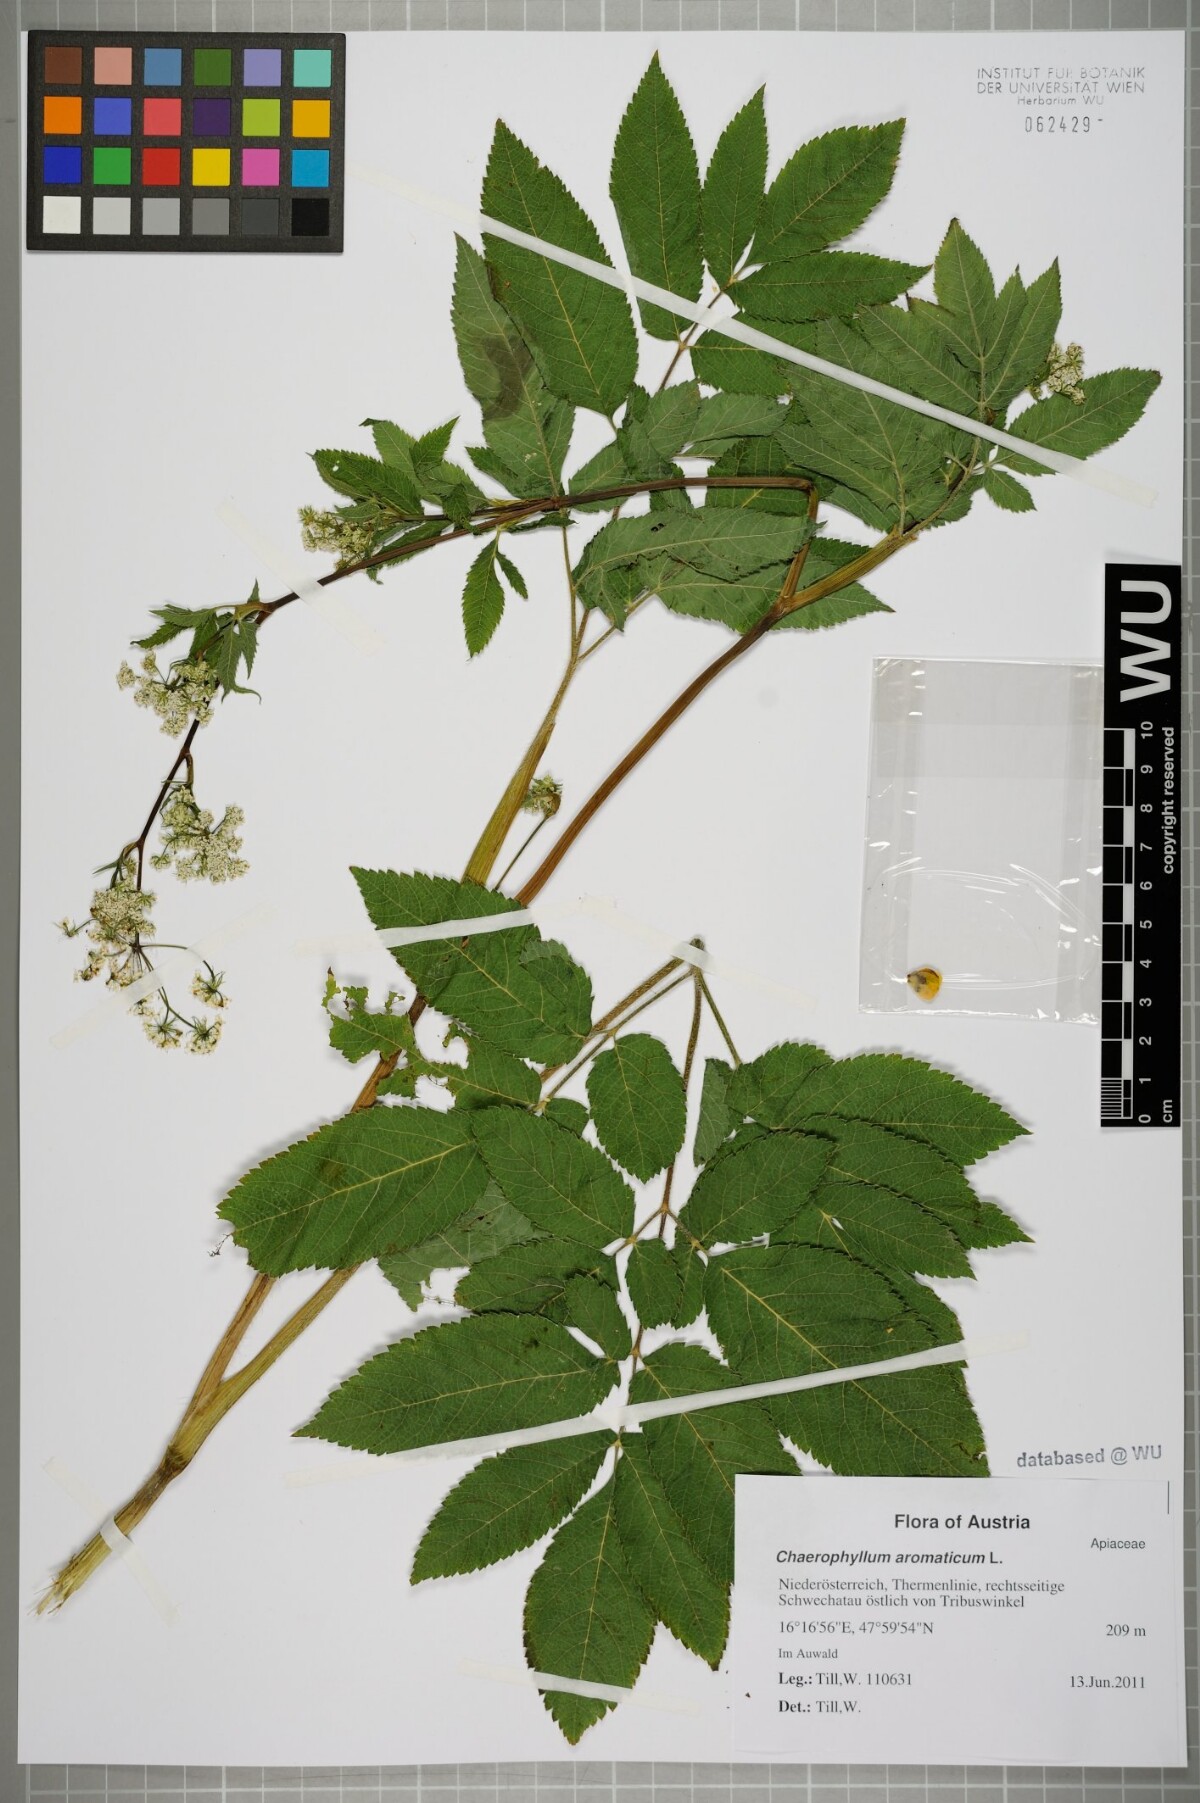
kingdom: Plantae
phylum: Tracheophyta
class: Magnoliopsida
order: Apiales
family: Apiaceae
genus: Chaerophyllum
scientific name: Chaerophyllum aromaticum
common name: Broadleaf chervil
